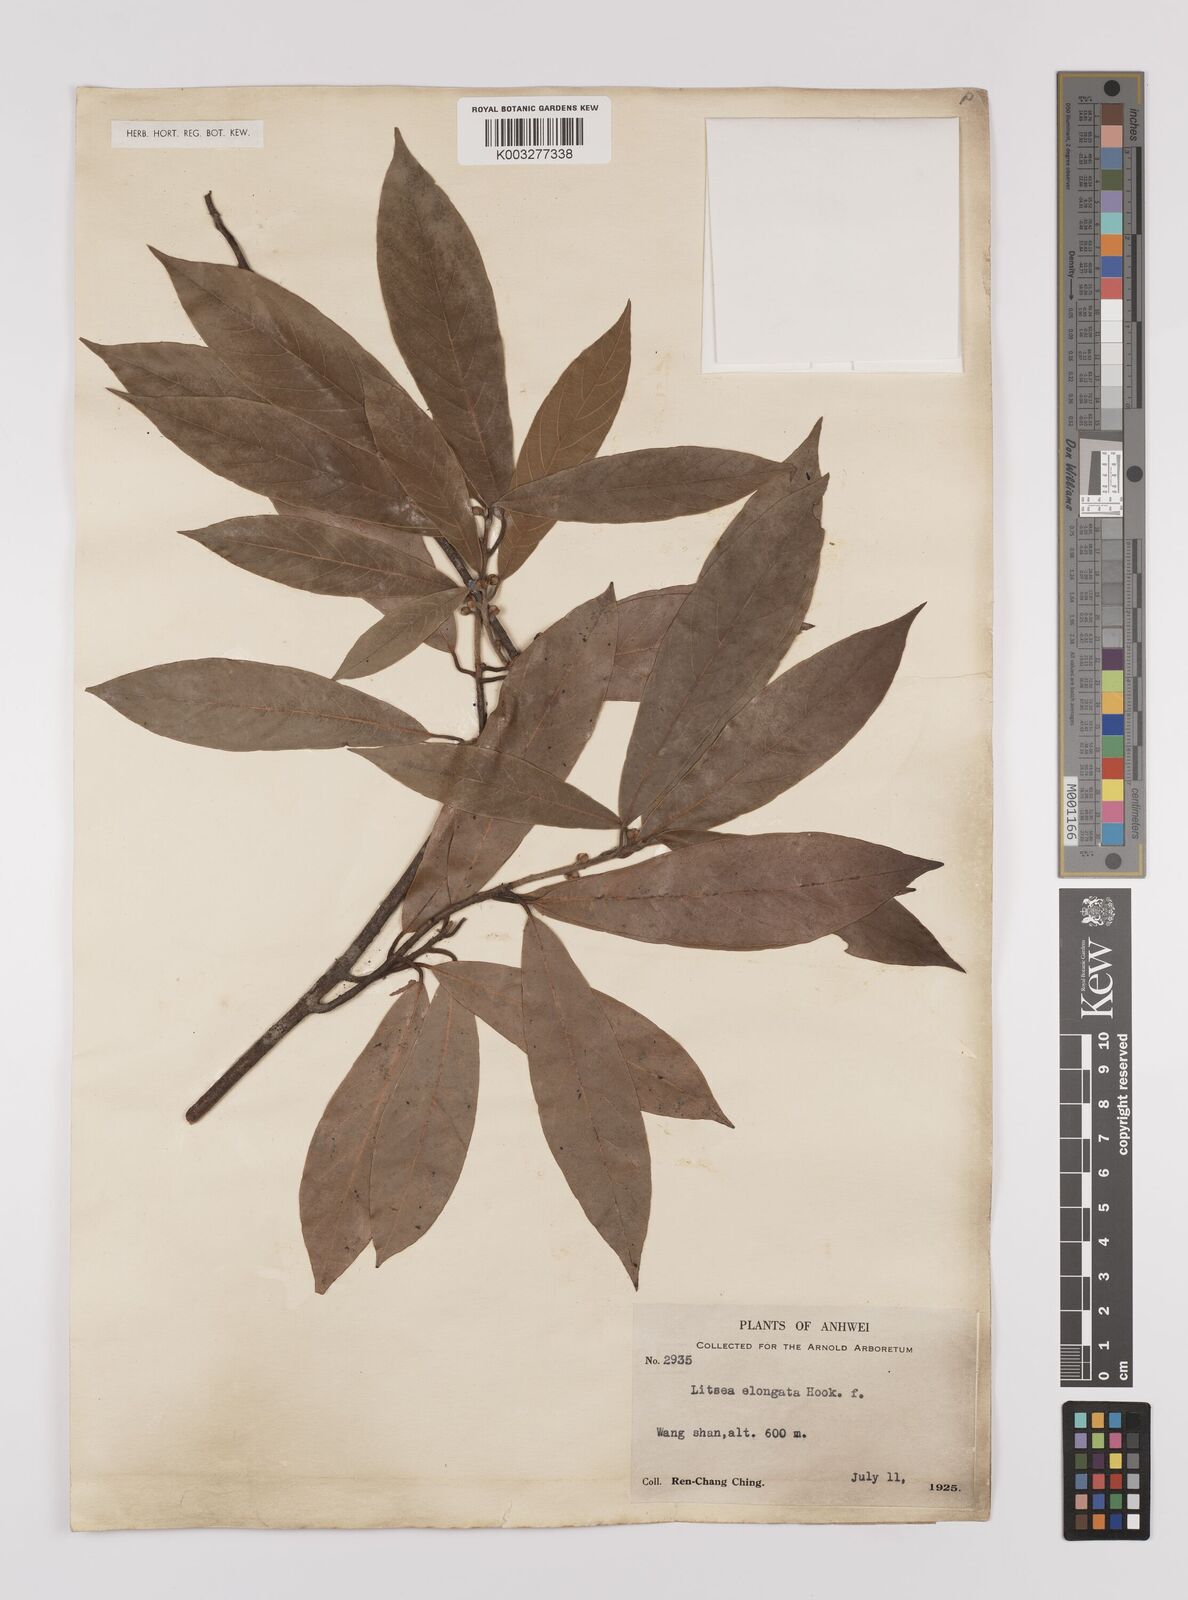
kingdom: Plantae
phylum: Tracheophyta
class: Magnoliopsida
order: Laurales
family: Lauraceae
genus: Litsea
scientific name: Litsea elongata
